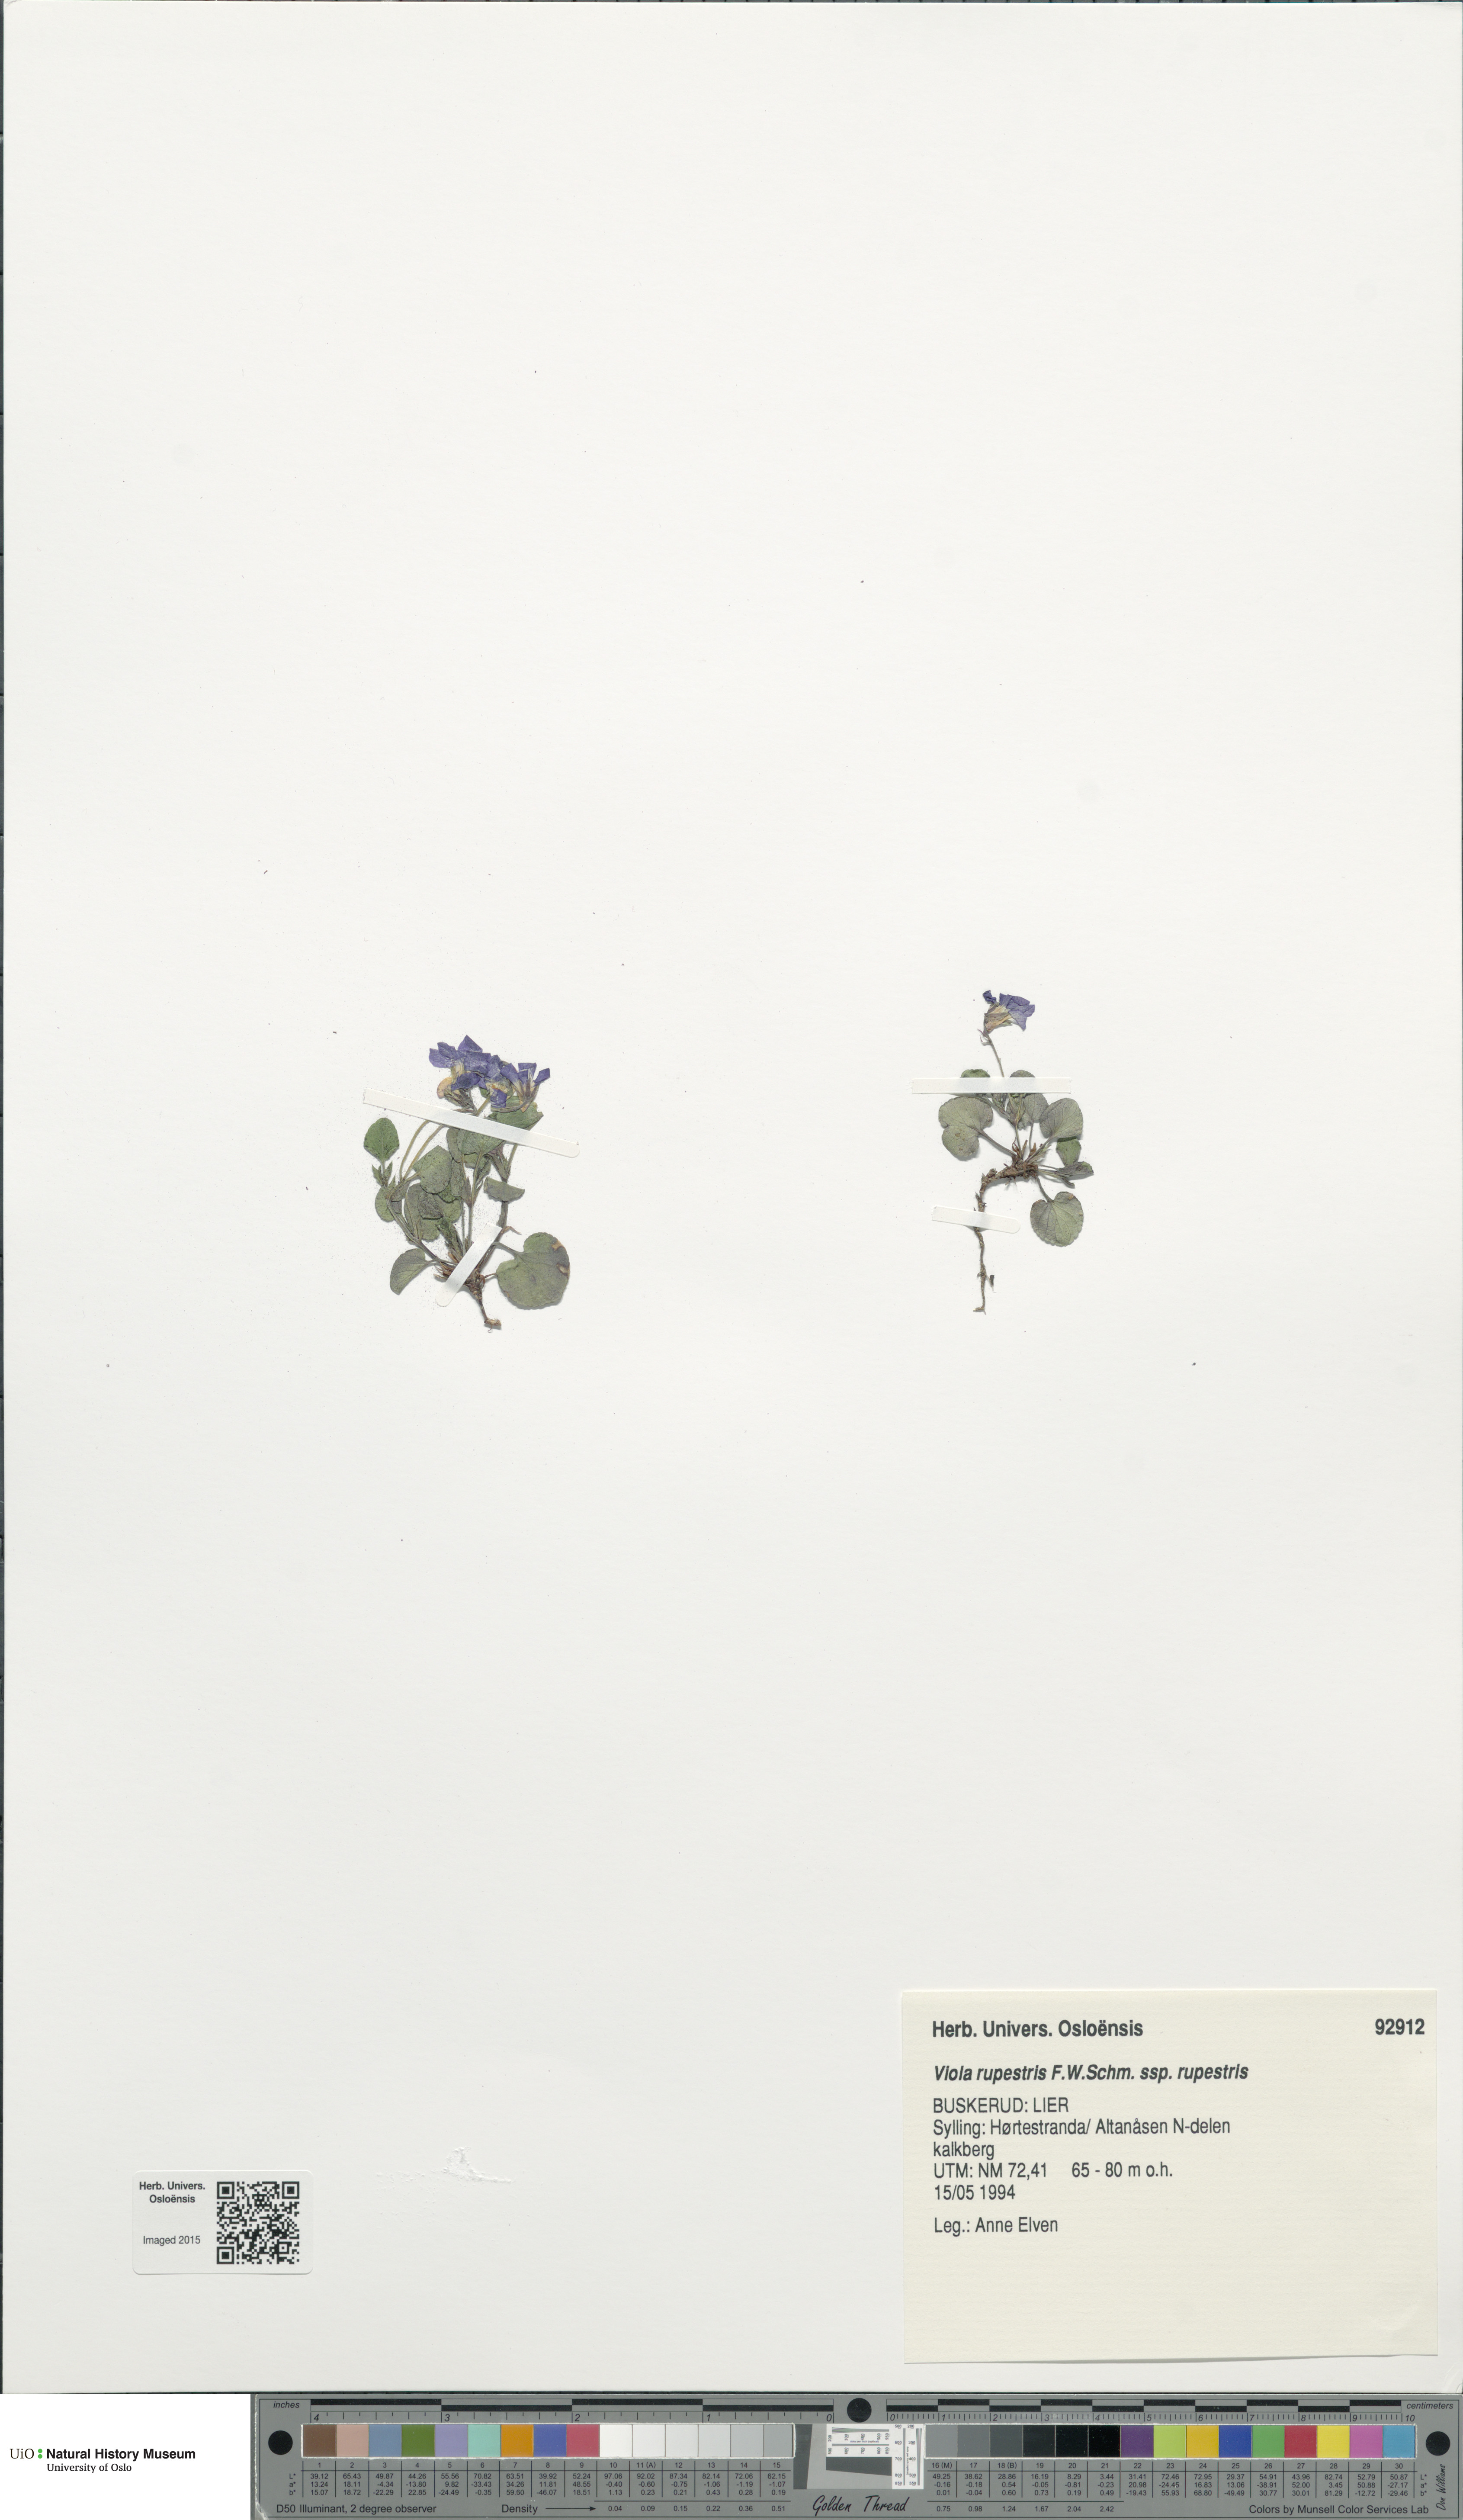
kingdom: Plantae
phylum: Tracheophyta
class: Magnoliopsida
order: Malpighiales
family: Violaceae
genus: Viola
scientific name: Viola rupestris
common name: Teesdale violet
